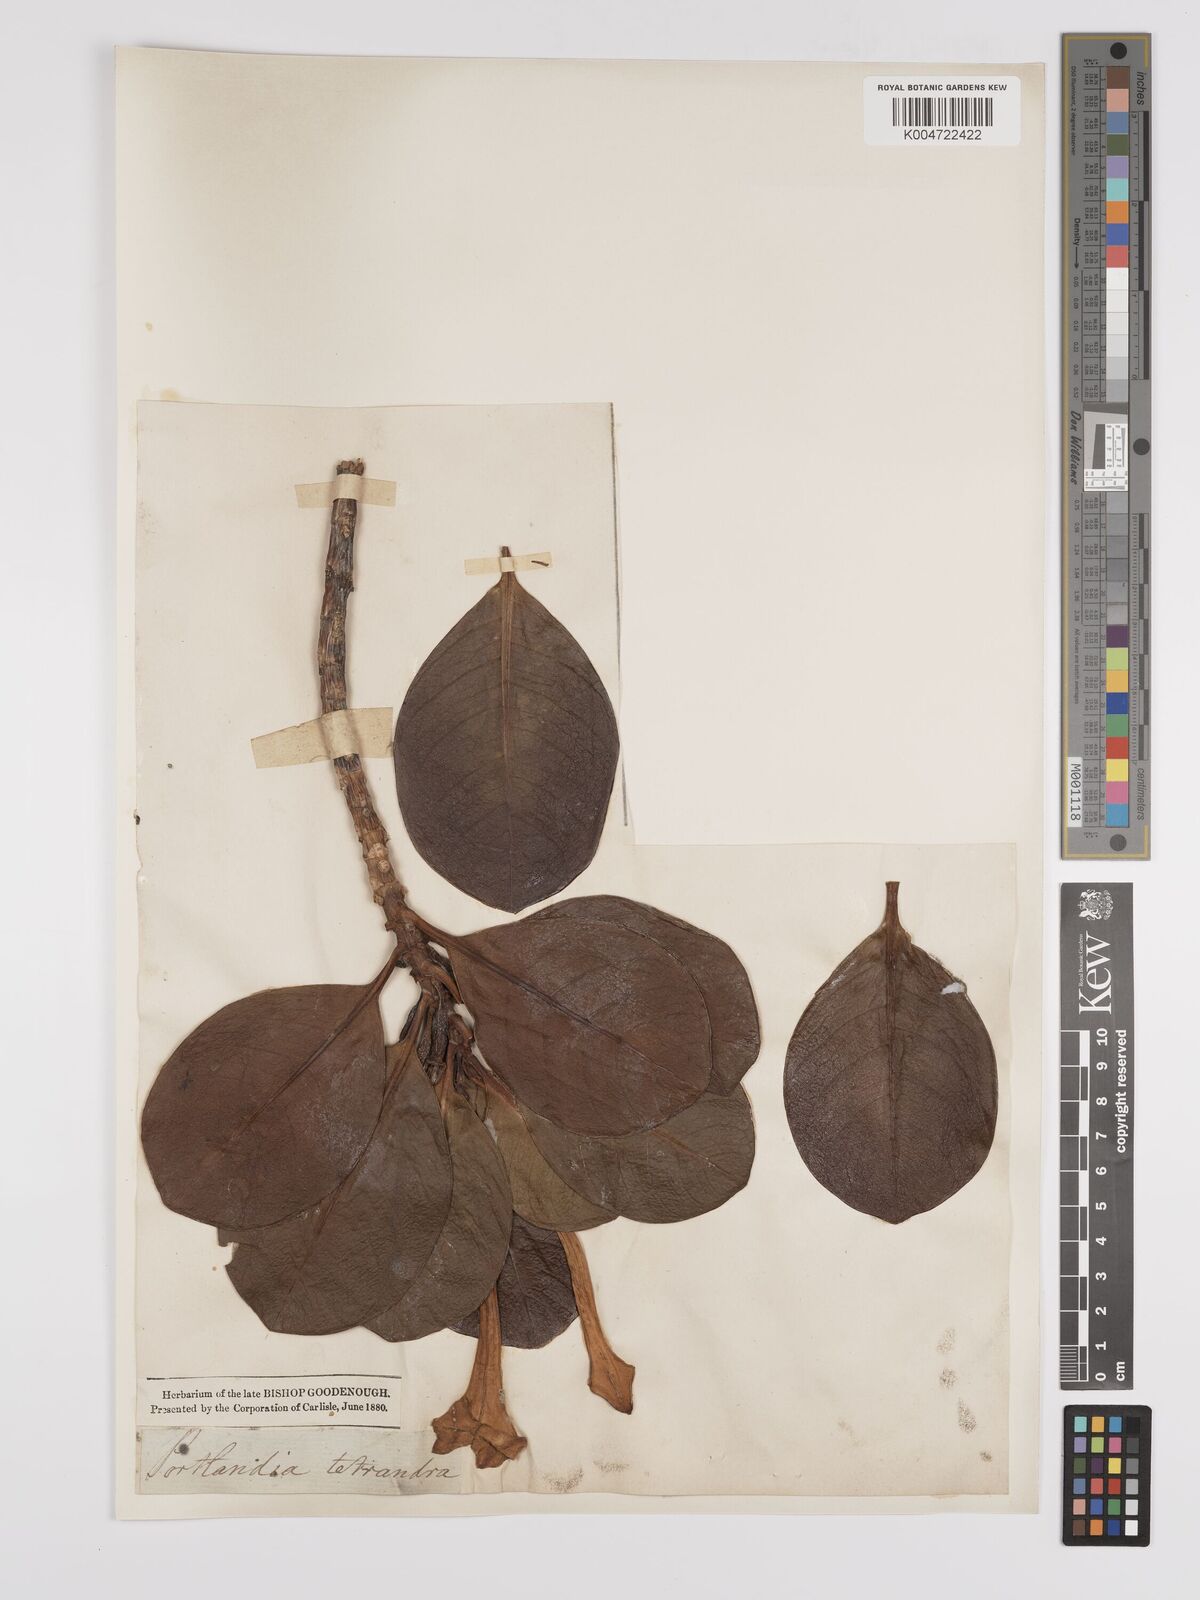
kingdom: Plantae
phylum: Tracheophyta
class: Magnoliopsida
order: Gentianales
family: Rubiaceae
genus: Bikkia
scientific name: Bikkia
